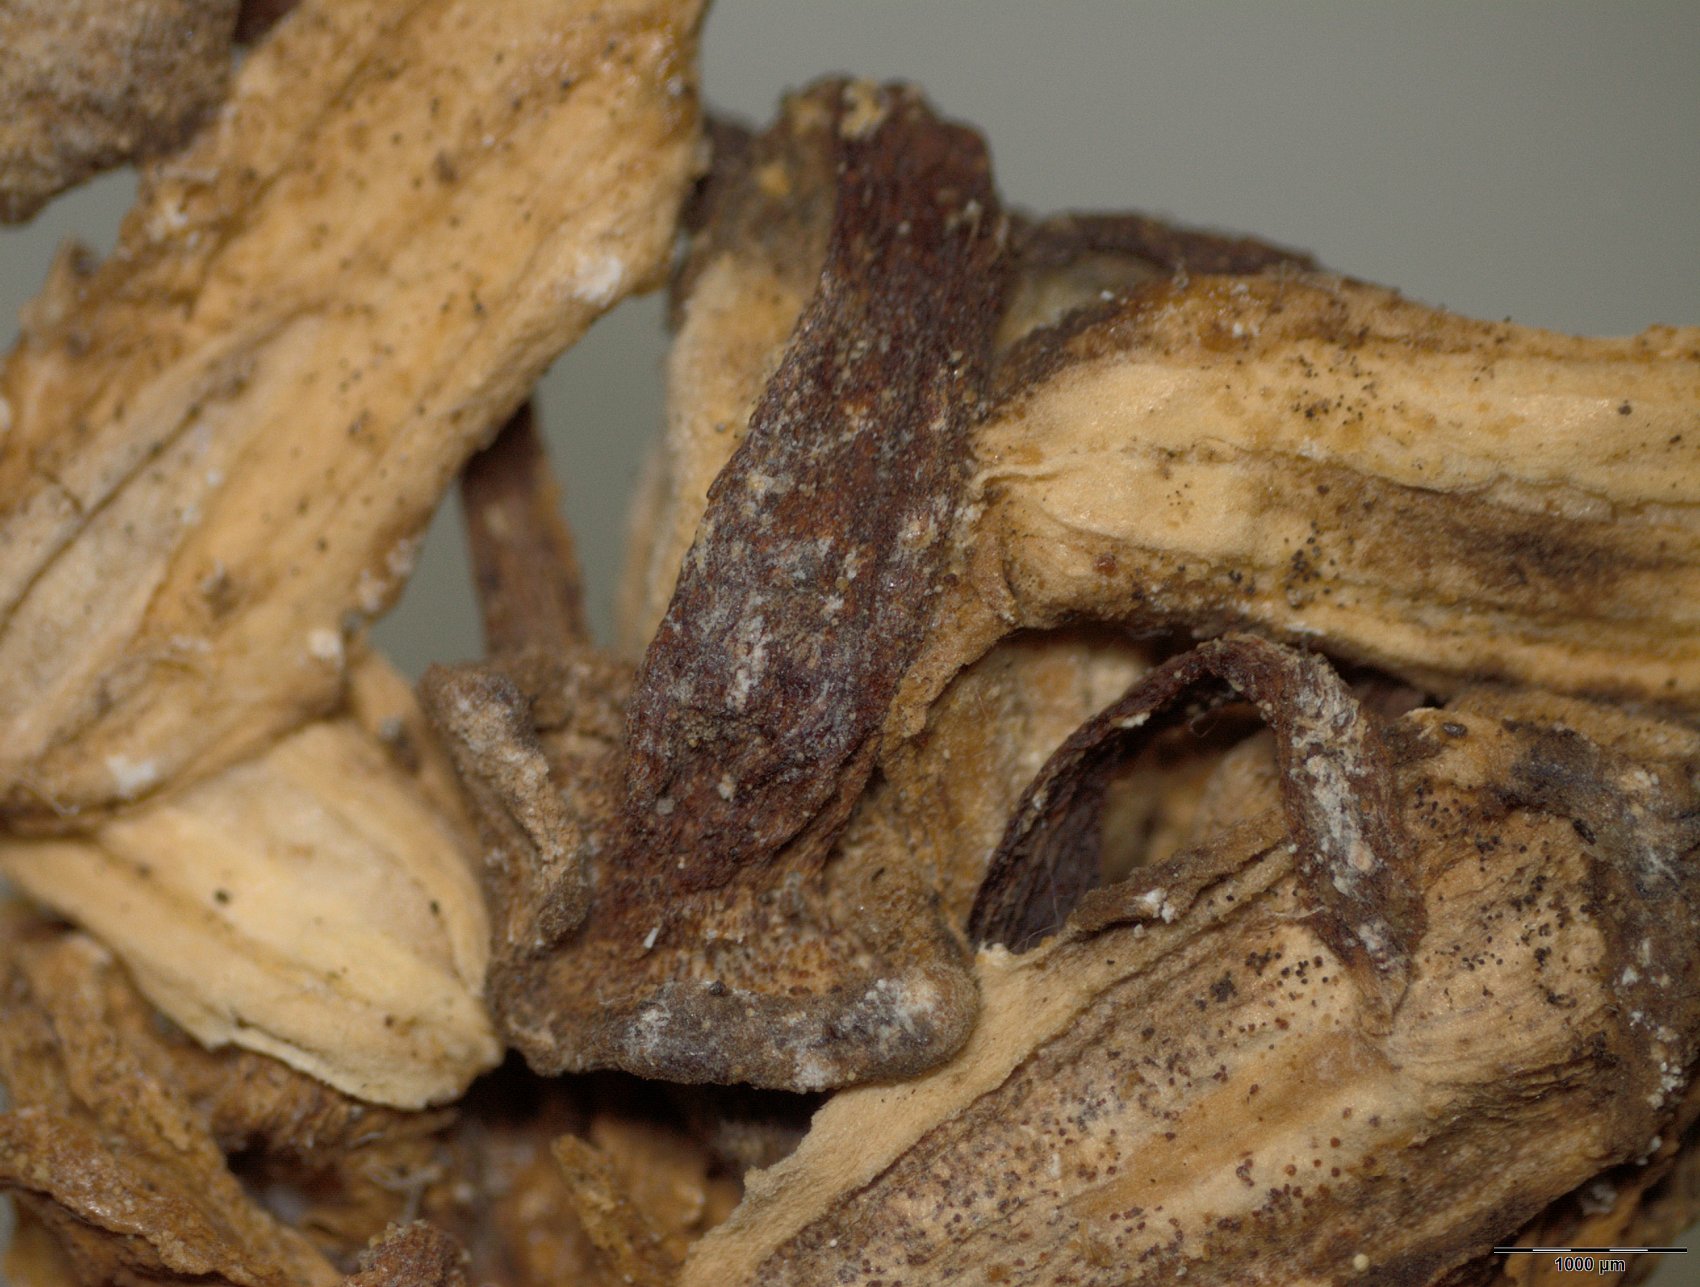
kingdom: Plantae
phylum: Tracheophyta
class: Magnoliopsida
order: Malpighiales
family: Passifloraceae
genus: Passiflora
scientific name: Passiflora macrophylla
